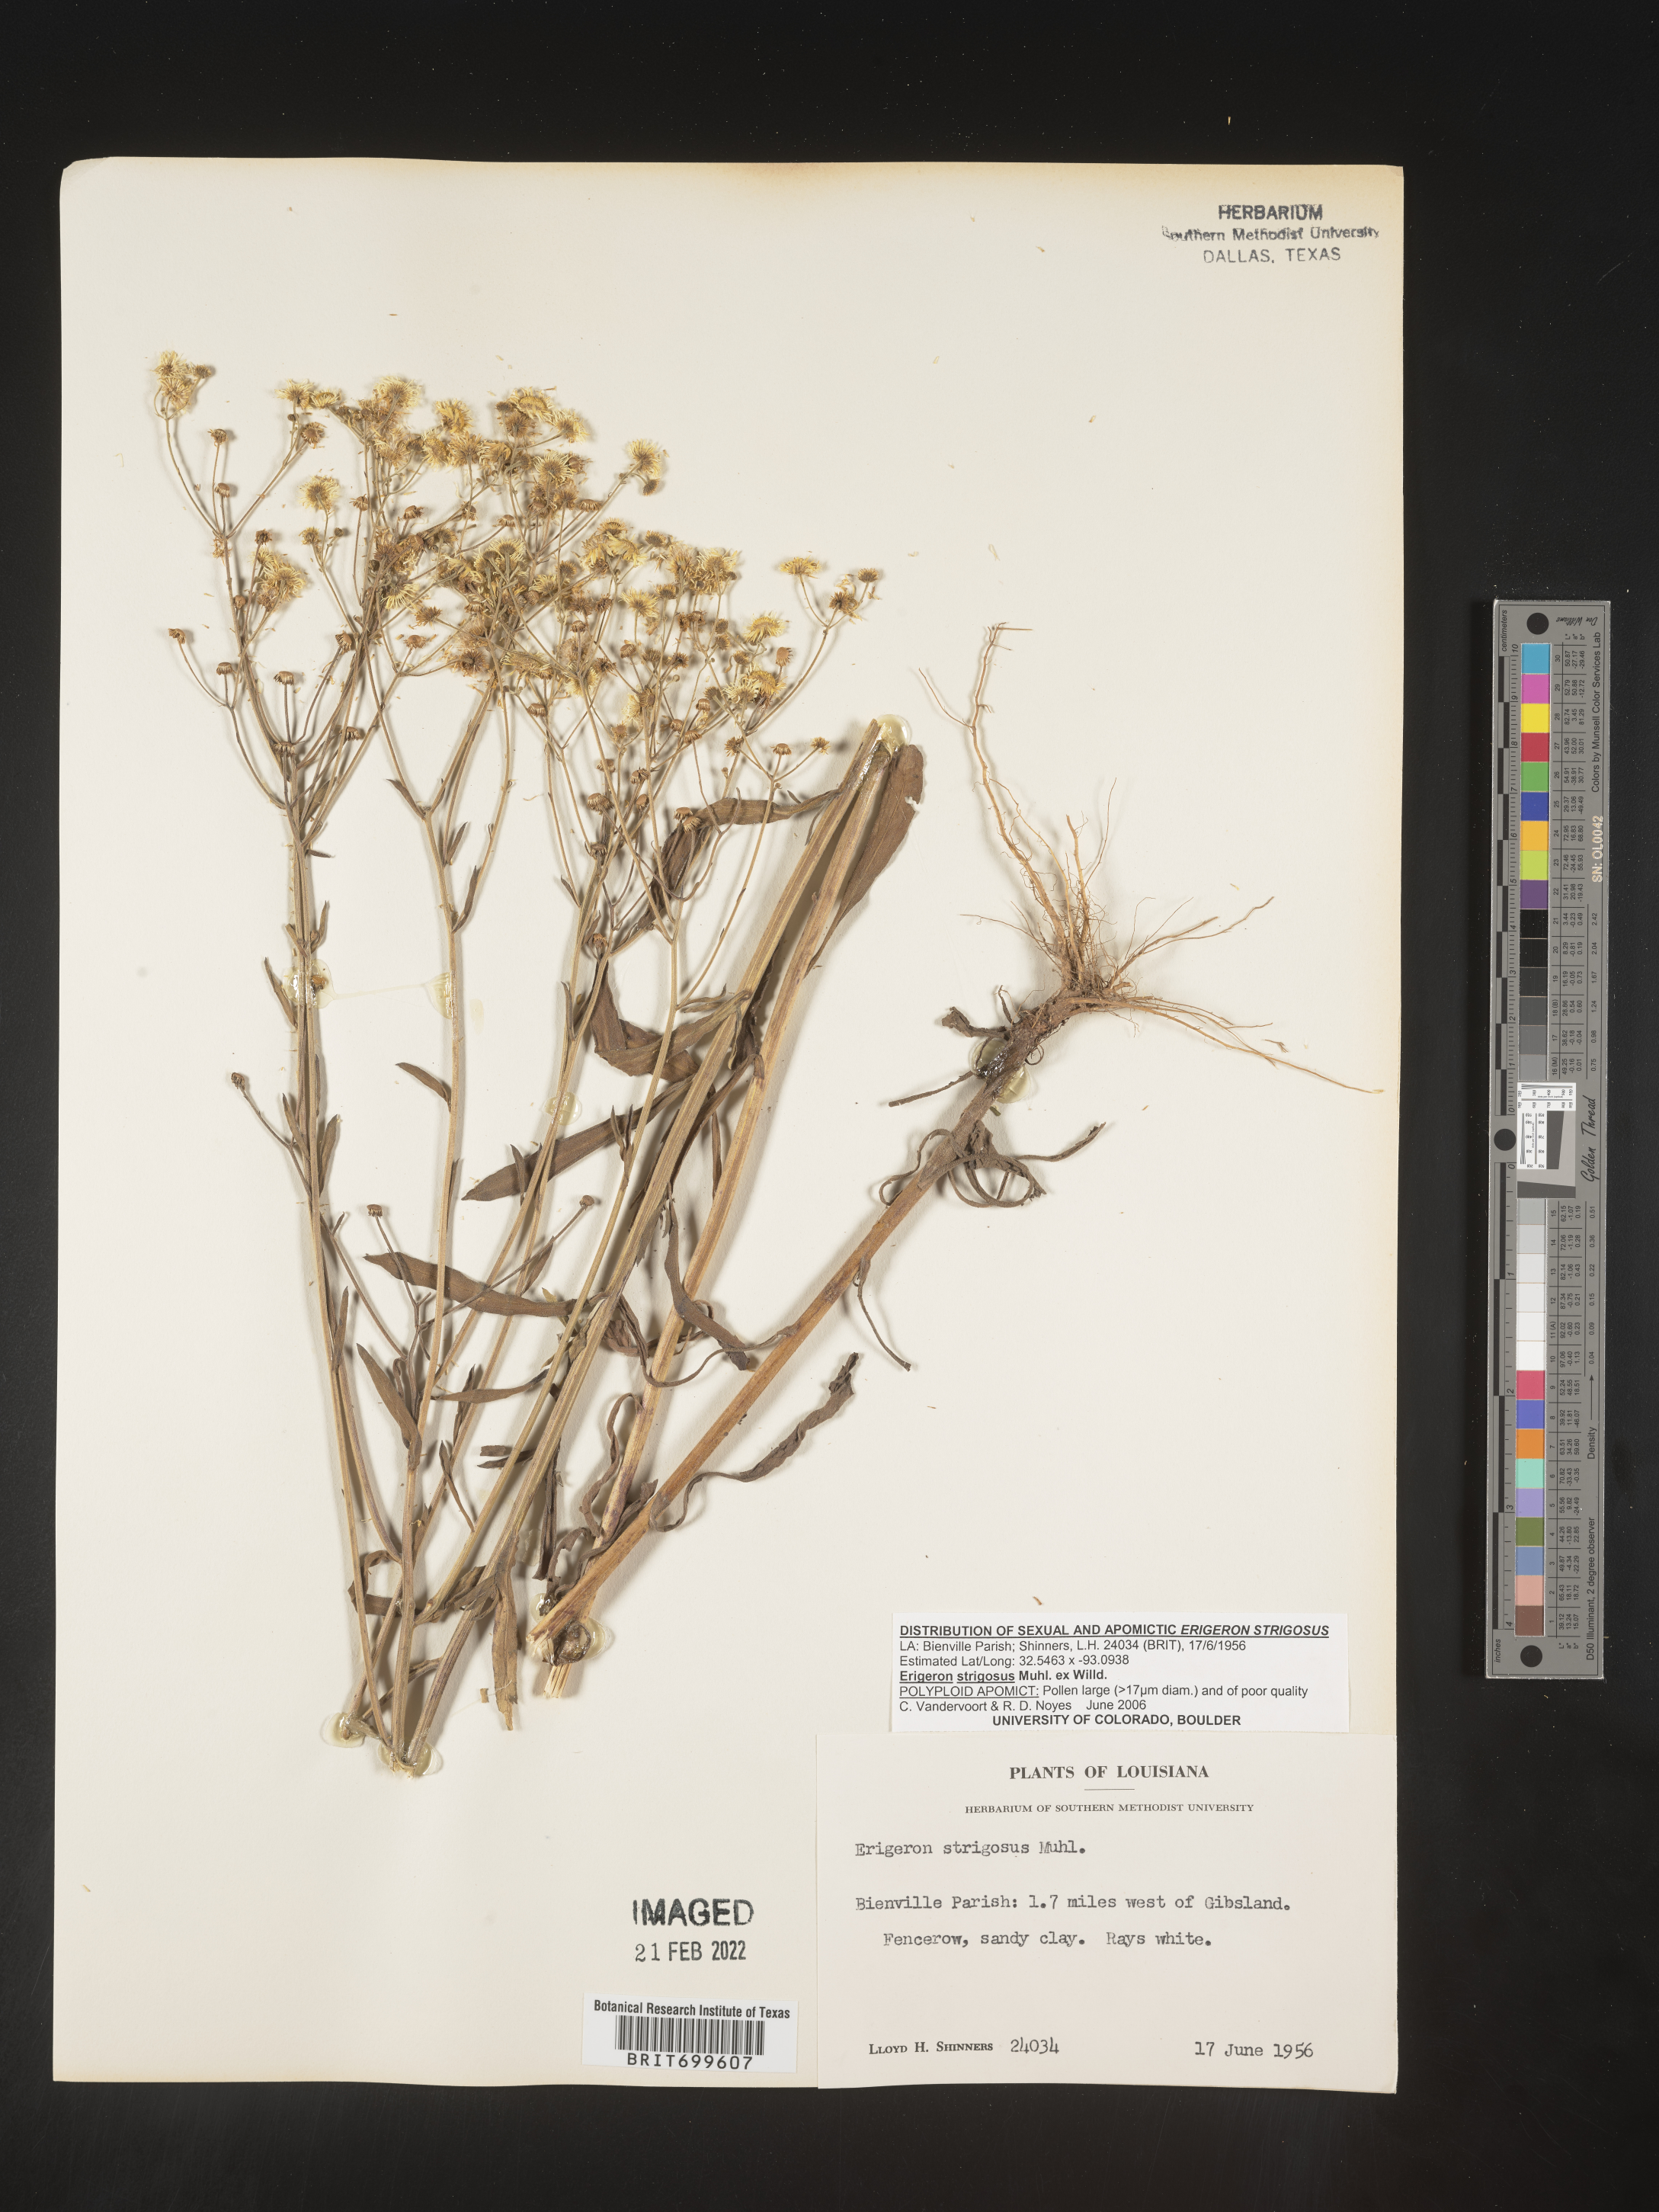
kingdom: Plantae
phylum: Tracheophyta
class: Magnoliopsida
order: Asterales
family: Asteraceae
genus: Erigeron
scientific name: Erigeron strigosus
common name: Common eastern fleabane
